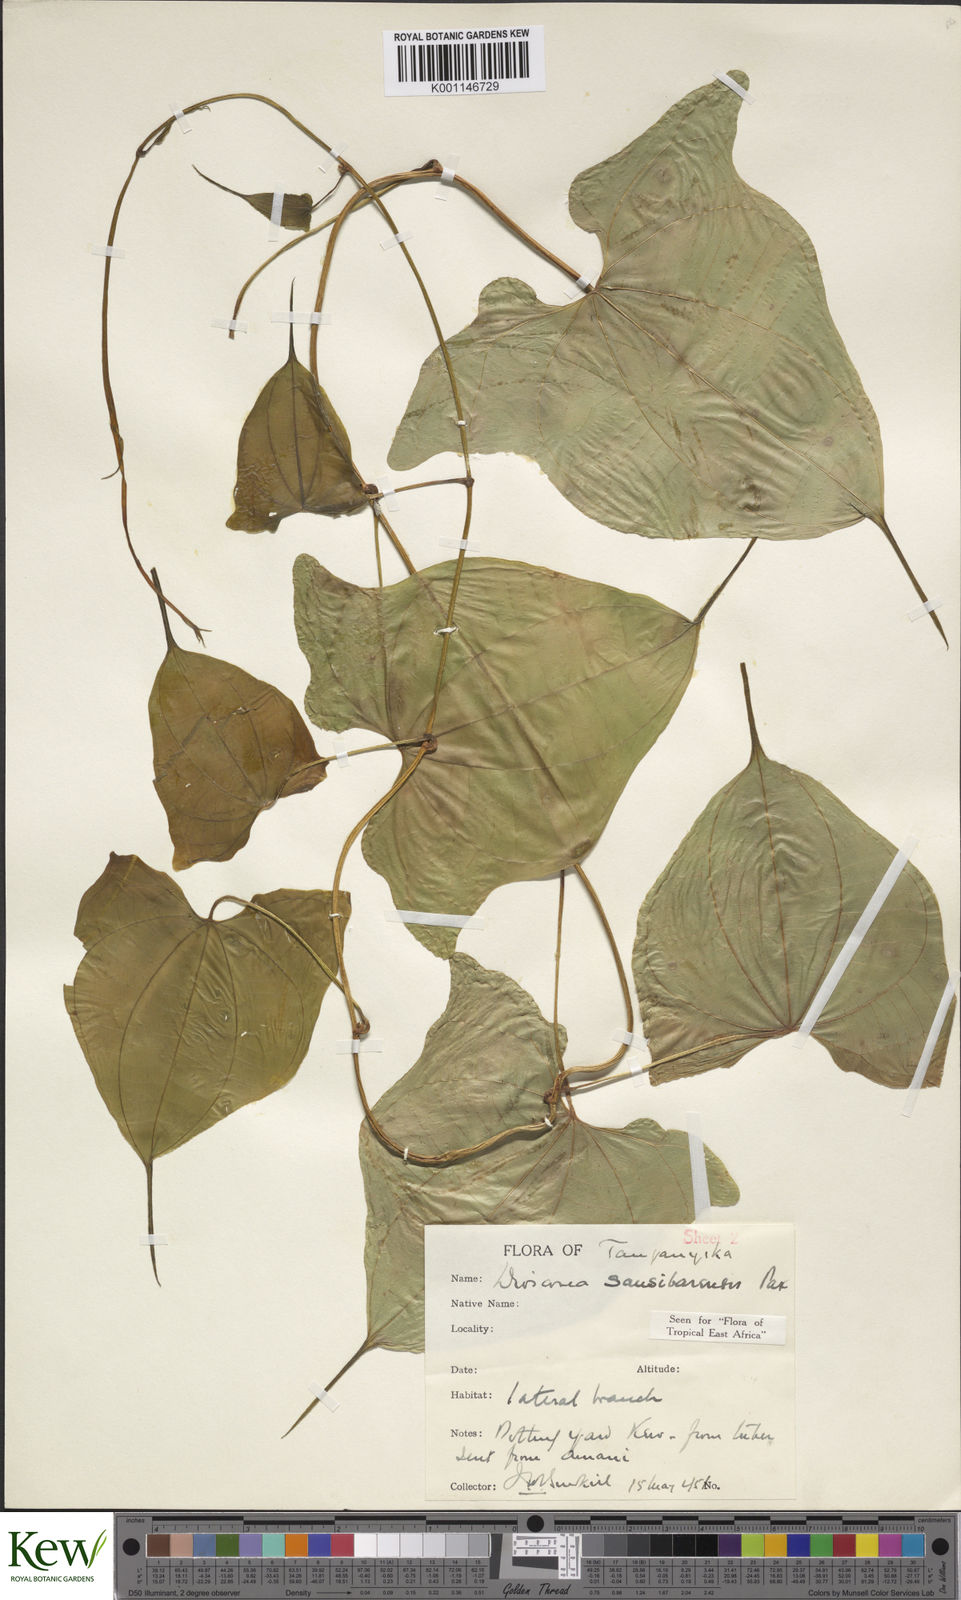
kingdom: Plantae
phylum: Tracheophyta
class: Liliopsida
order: Dioscoreales
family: Dioscoreaceae
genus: Dioscorea
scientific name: Dioscorea sansibarensis
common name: Zanzibar yam
